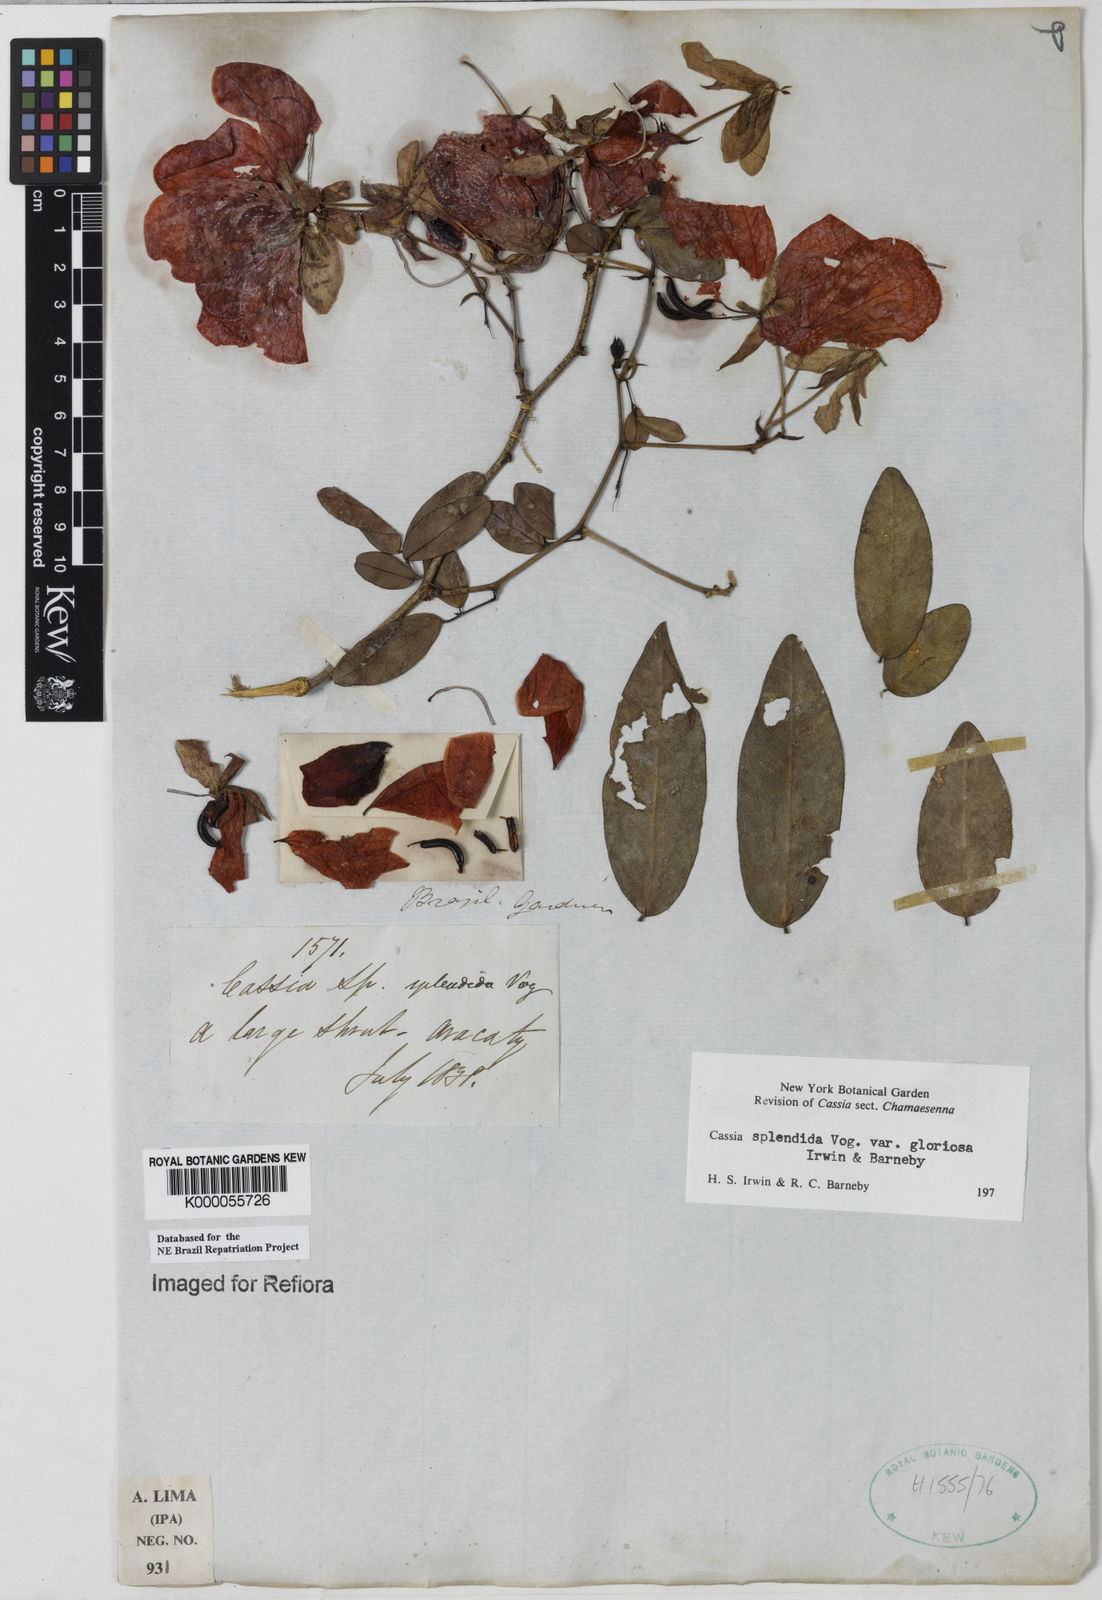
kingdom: Plantae
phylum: Tracheophyta
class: Magnoliopsida
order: Fabales
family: Fabaceae
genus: Senna
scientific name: Senna splendida
